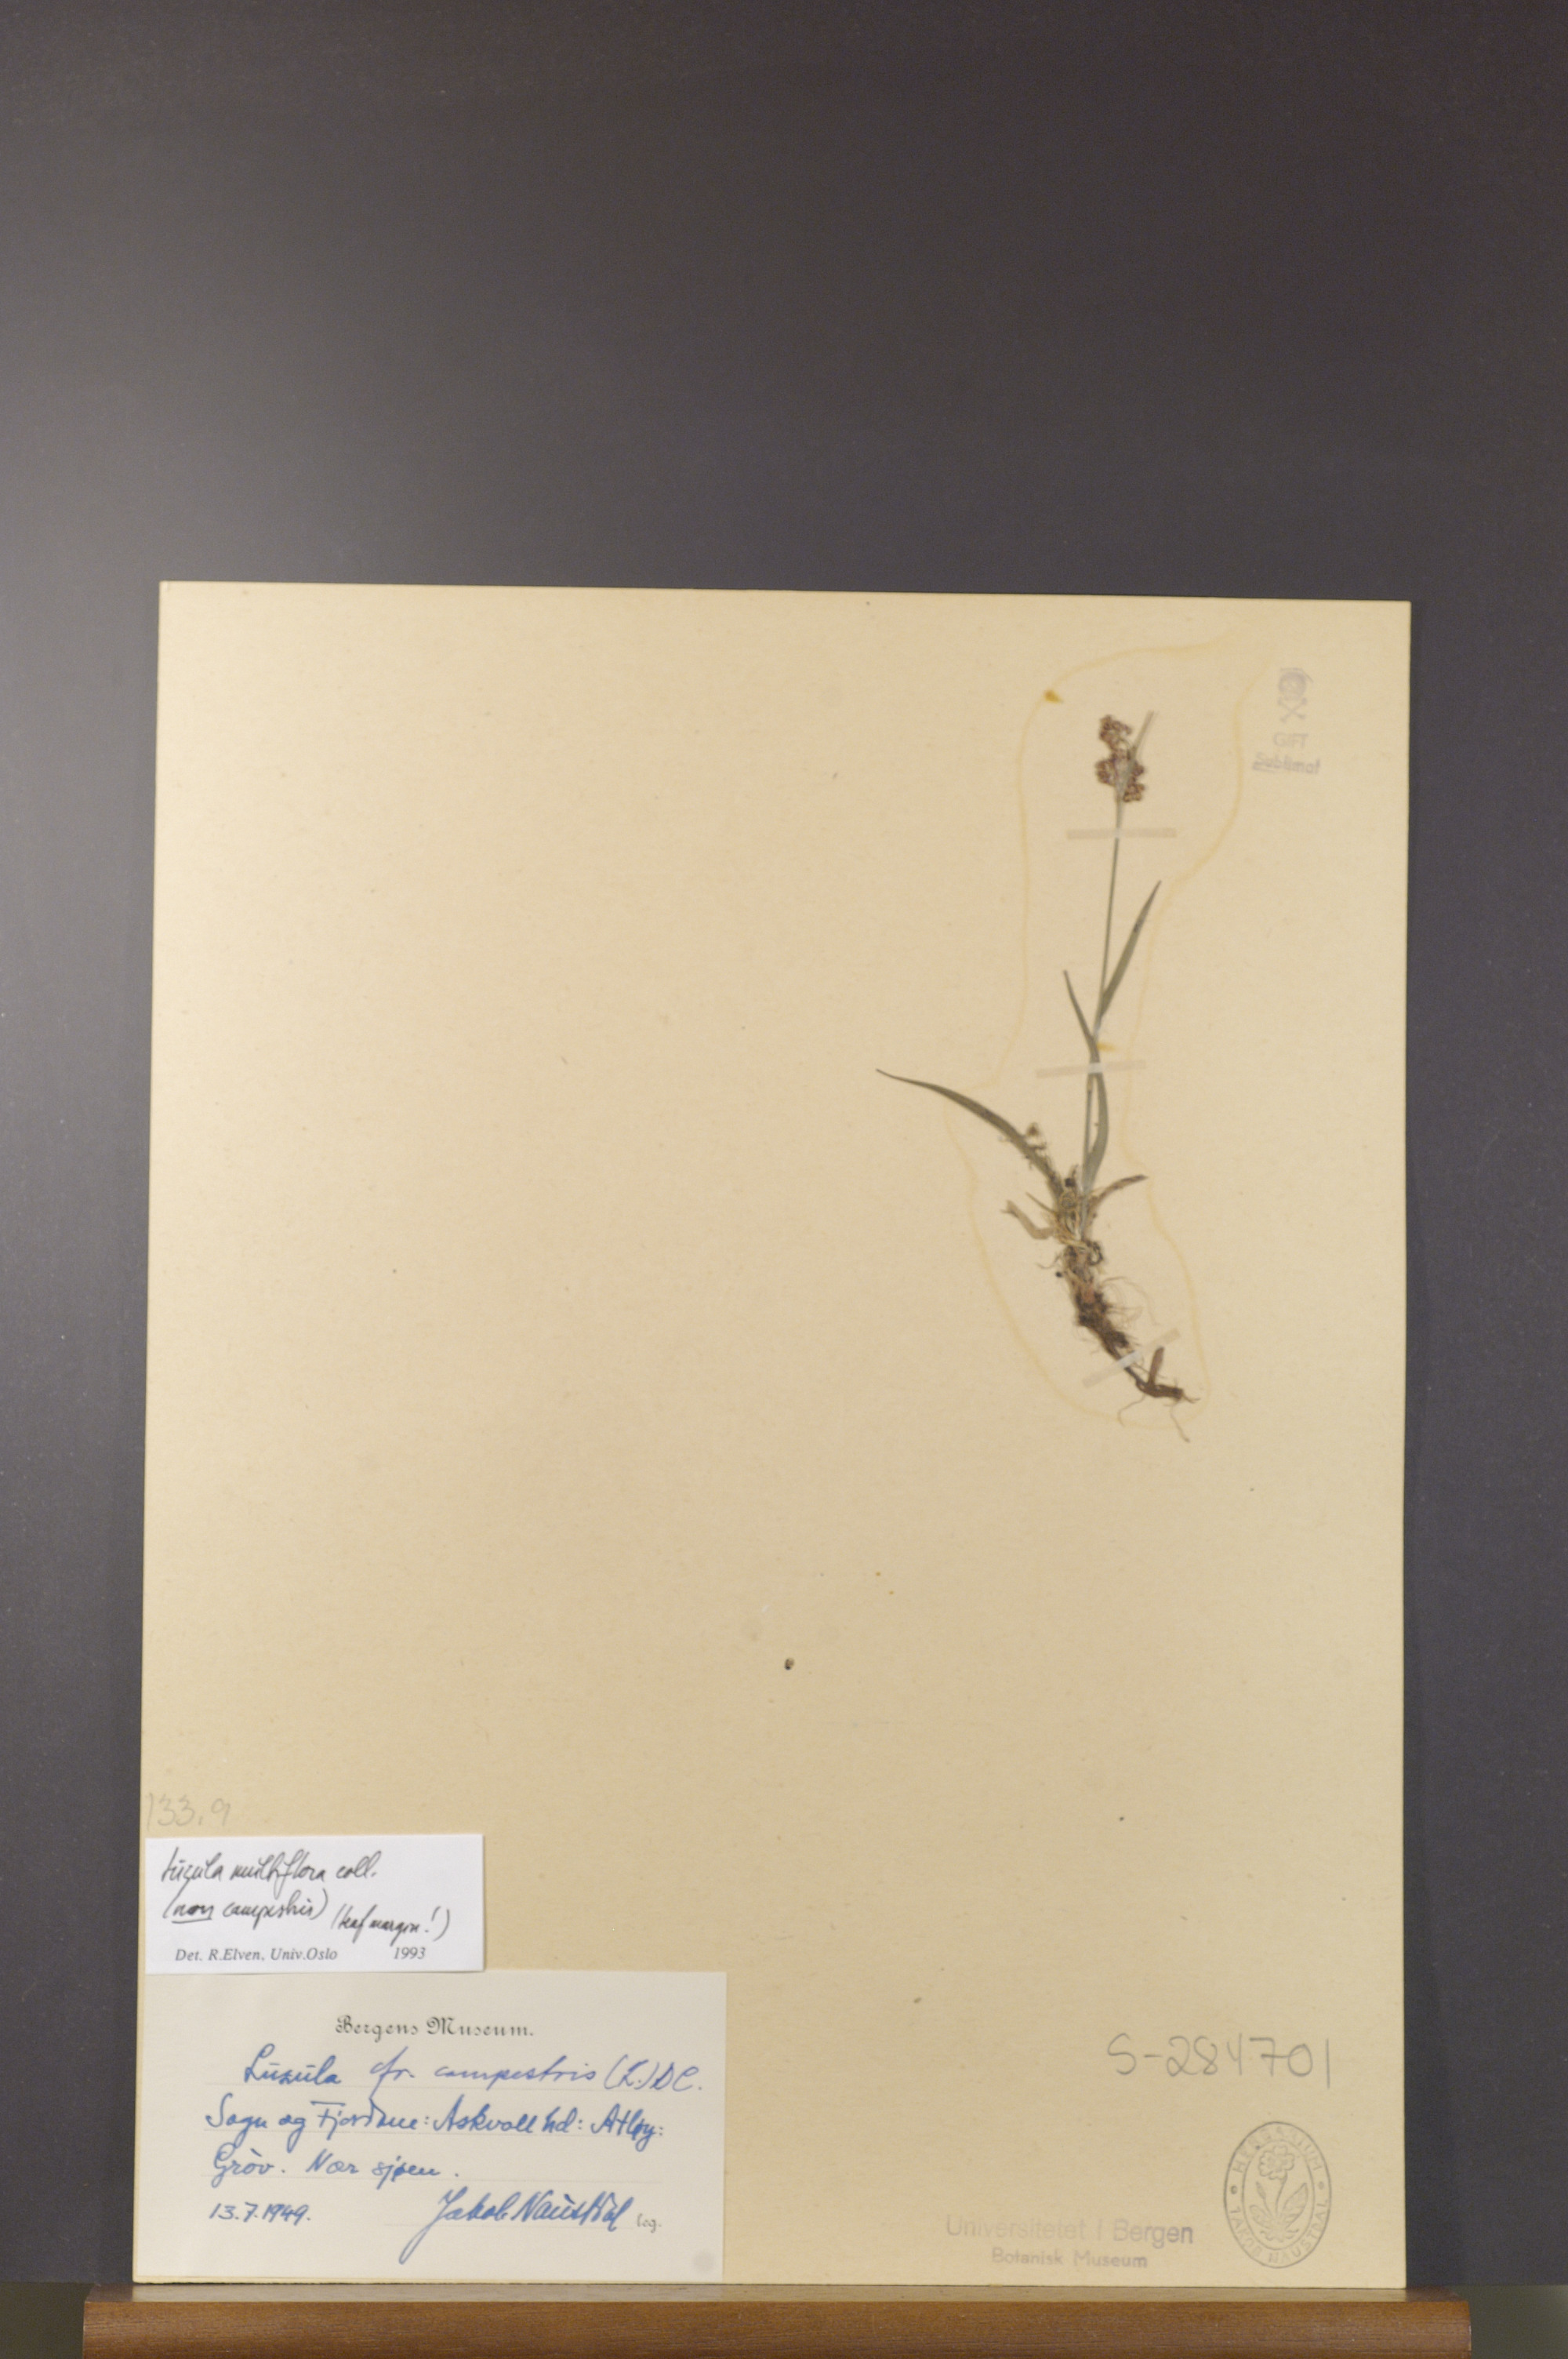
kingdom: Plantae
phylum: Tracheophyta
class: Liliopsida
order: Poales
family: Juncaceae
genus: Luzula
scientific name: Luzula multiflora
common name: Heath wood-rush
